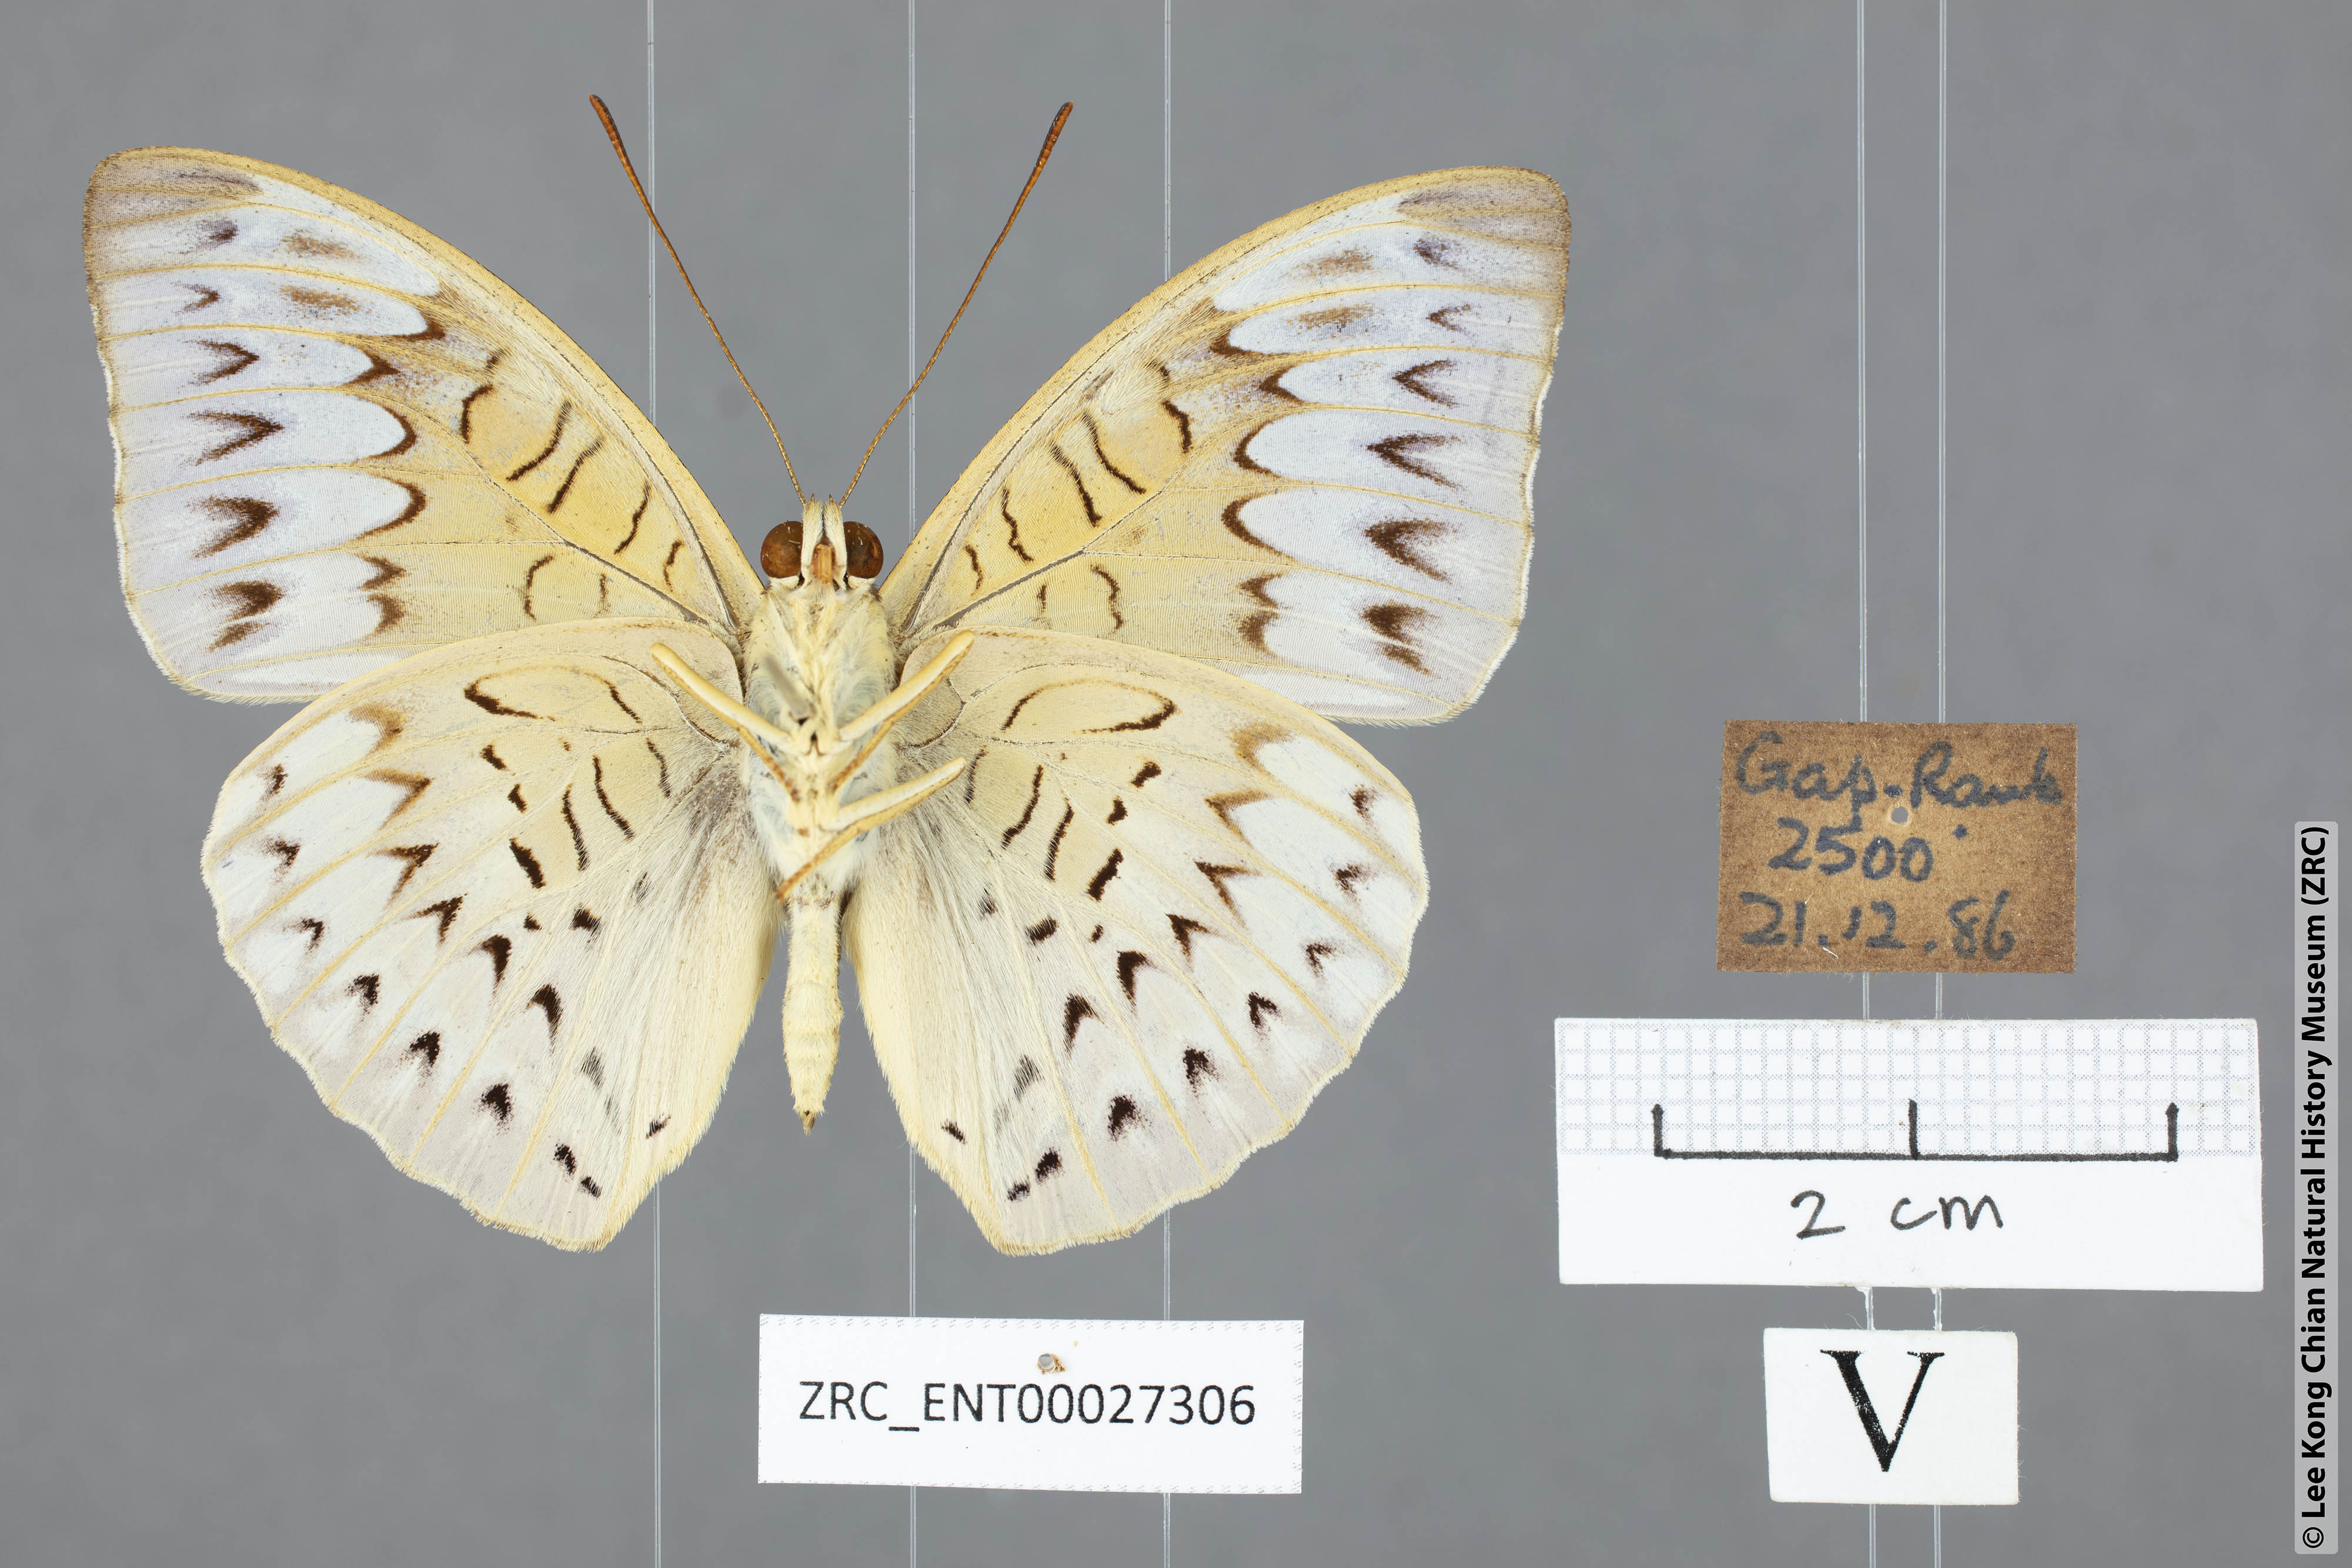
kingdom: Animalia
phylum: Arthropoda
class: Insecta
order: Lepidoptera
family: Nymphalidae
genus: Tanaecia
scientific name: Tanaecia palguna
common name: Long-lined viscount
